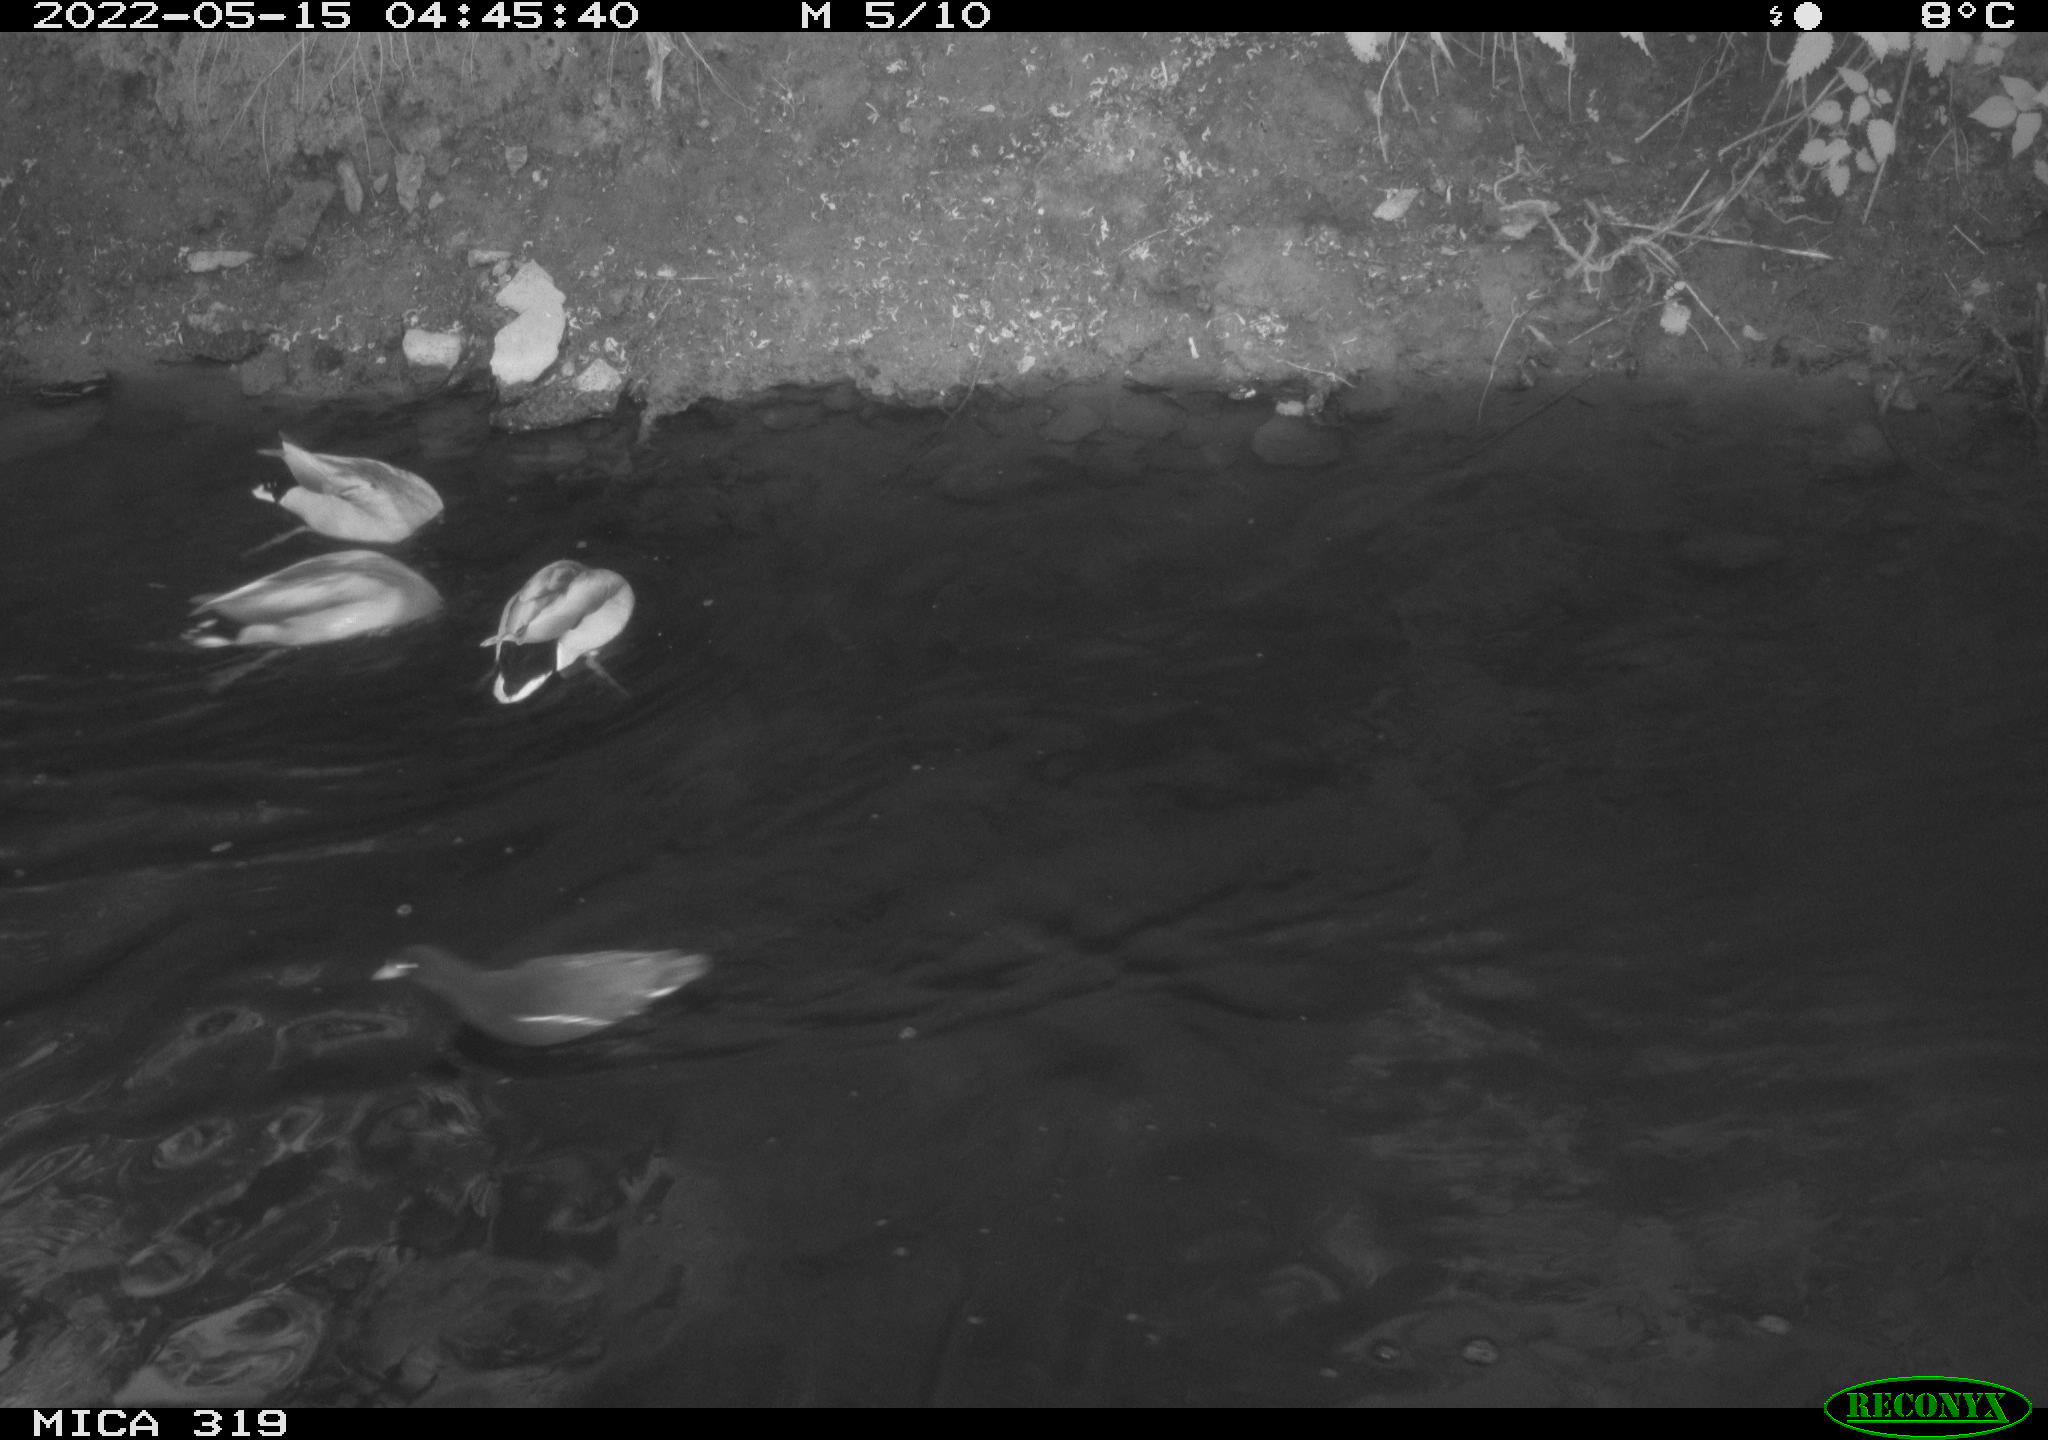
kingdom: Animalia
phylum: Chordata
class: Aves
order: Gruiformes
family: Rallidae
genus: Gallinula
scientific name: Gallinula chloropus
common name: Common moorhen
